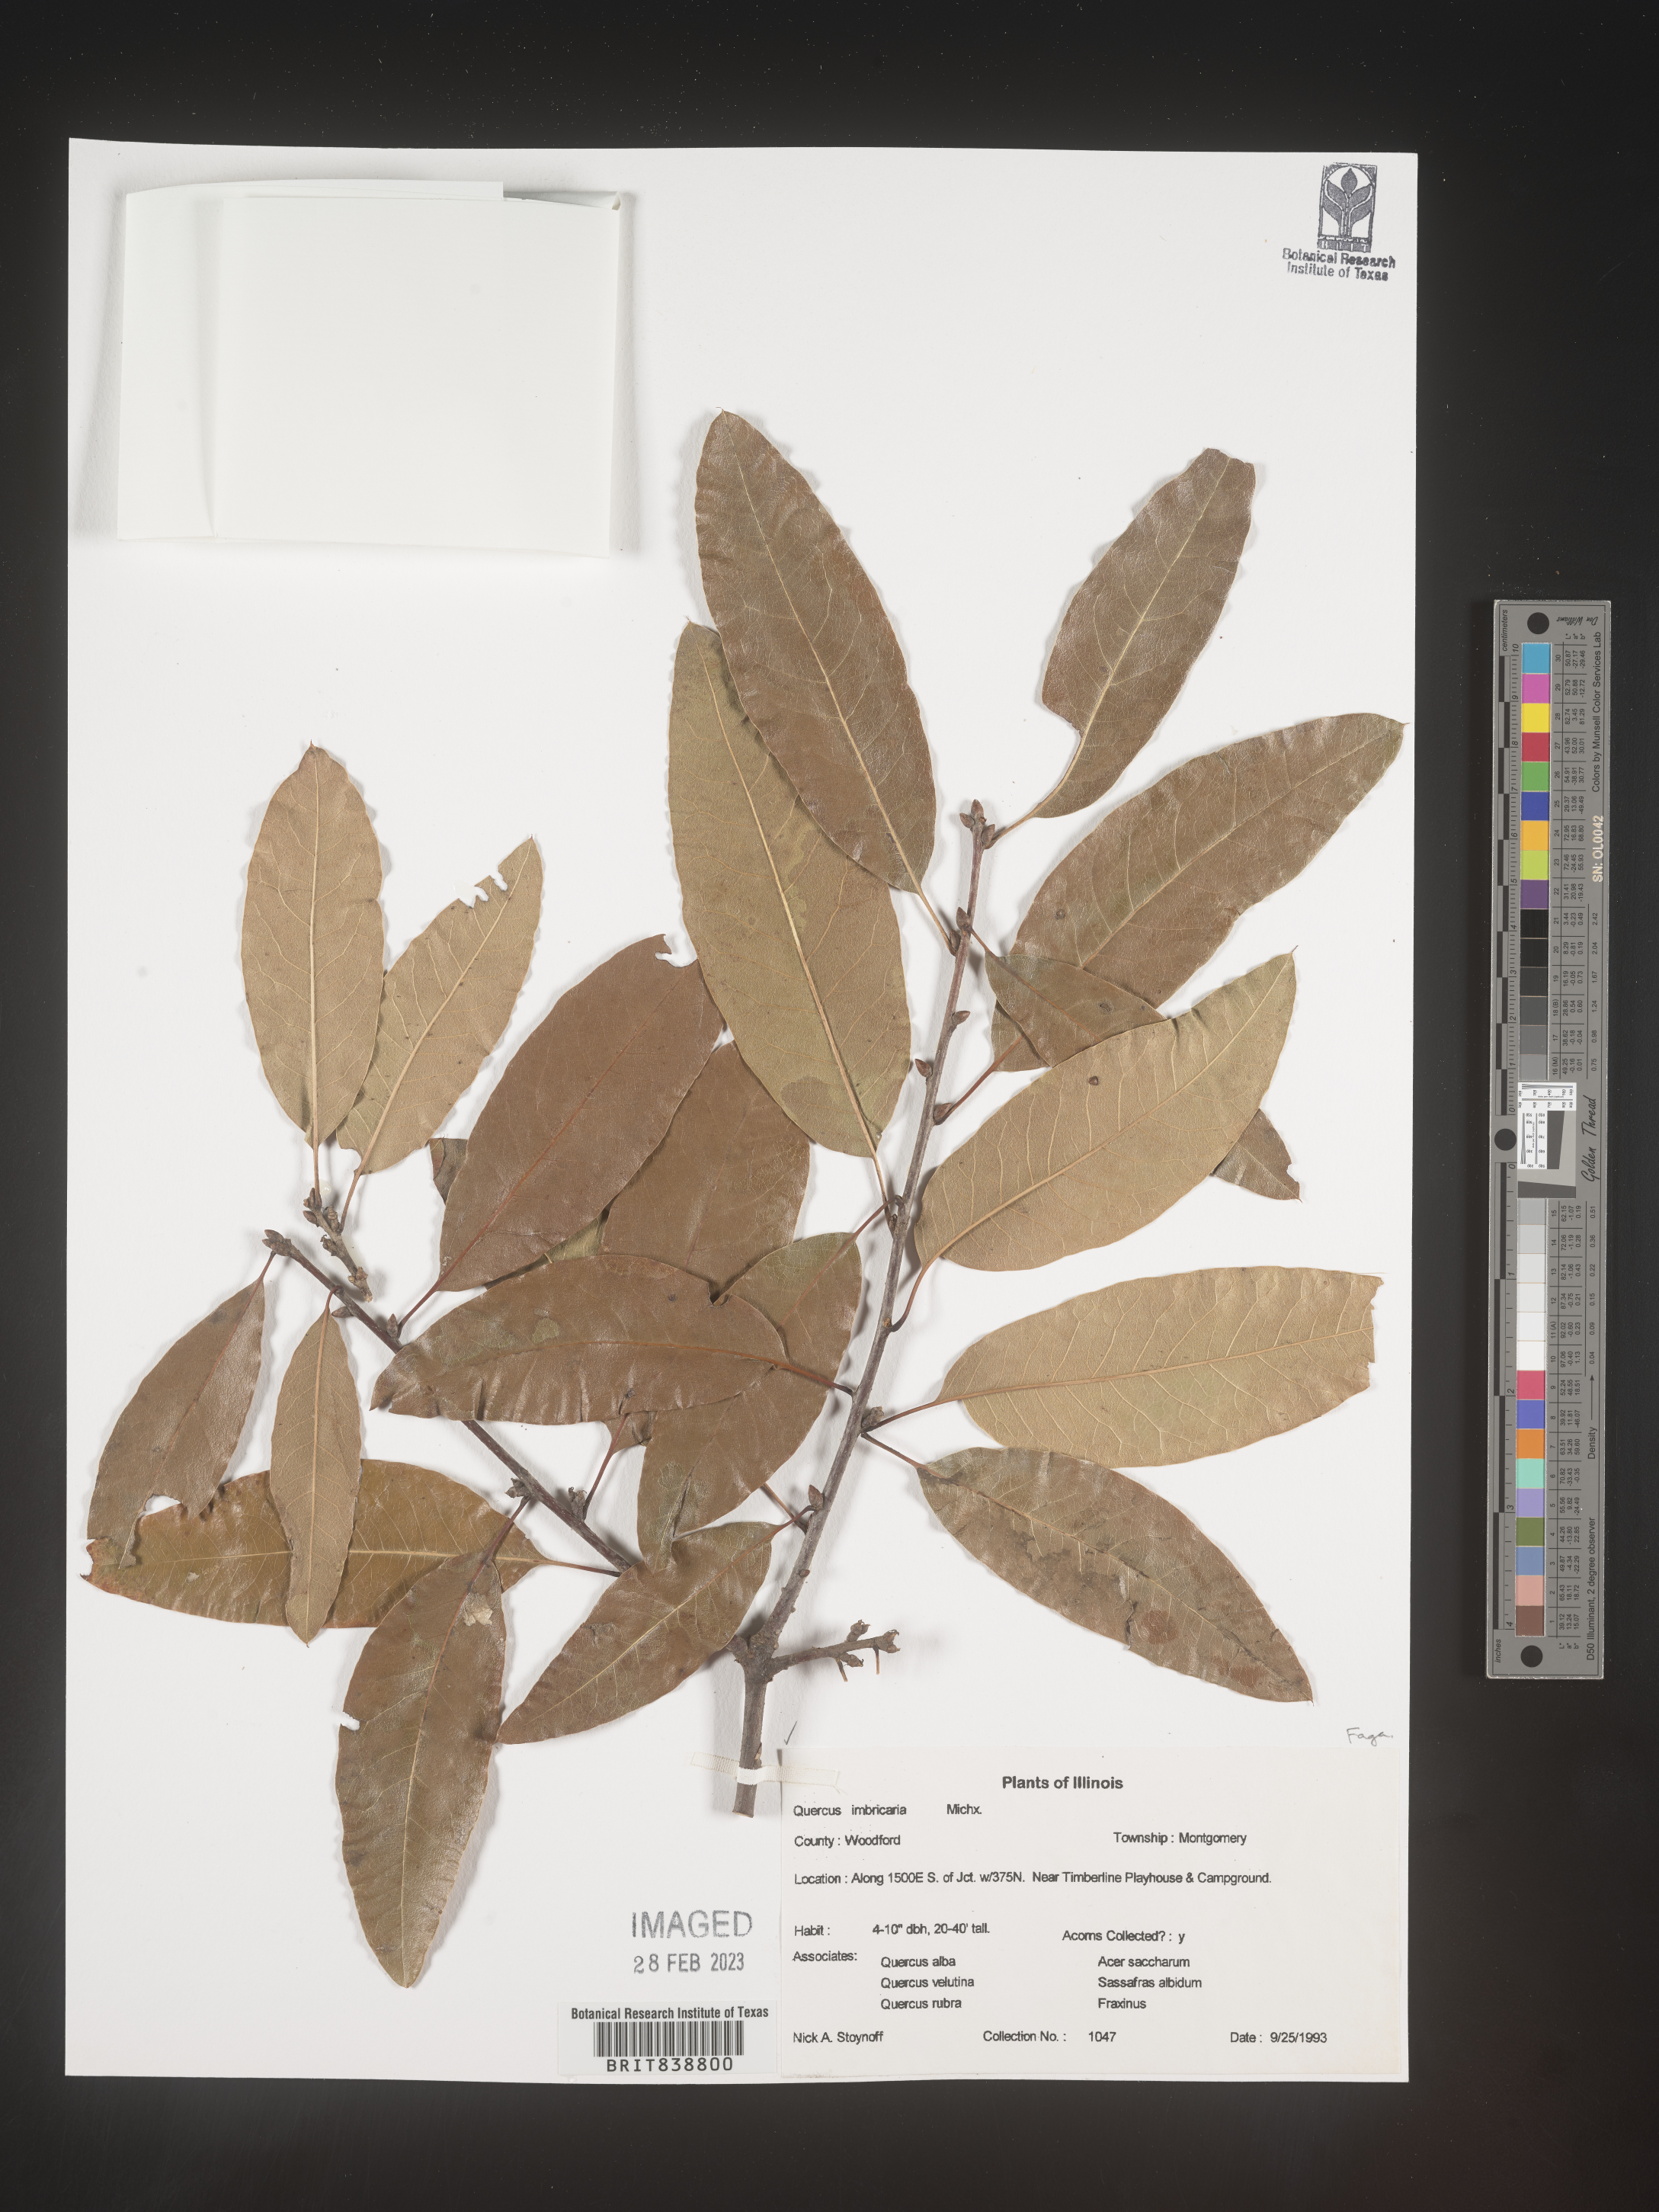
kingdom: Plantae
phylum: Tracheophyta
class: Magnoliopsida
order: Fagales
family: Fagaceae
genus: Quercus
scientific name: Quercus imbricaria
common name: Shingle oak
